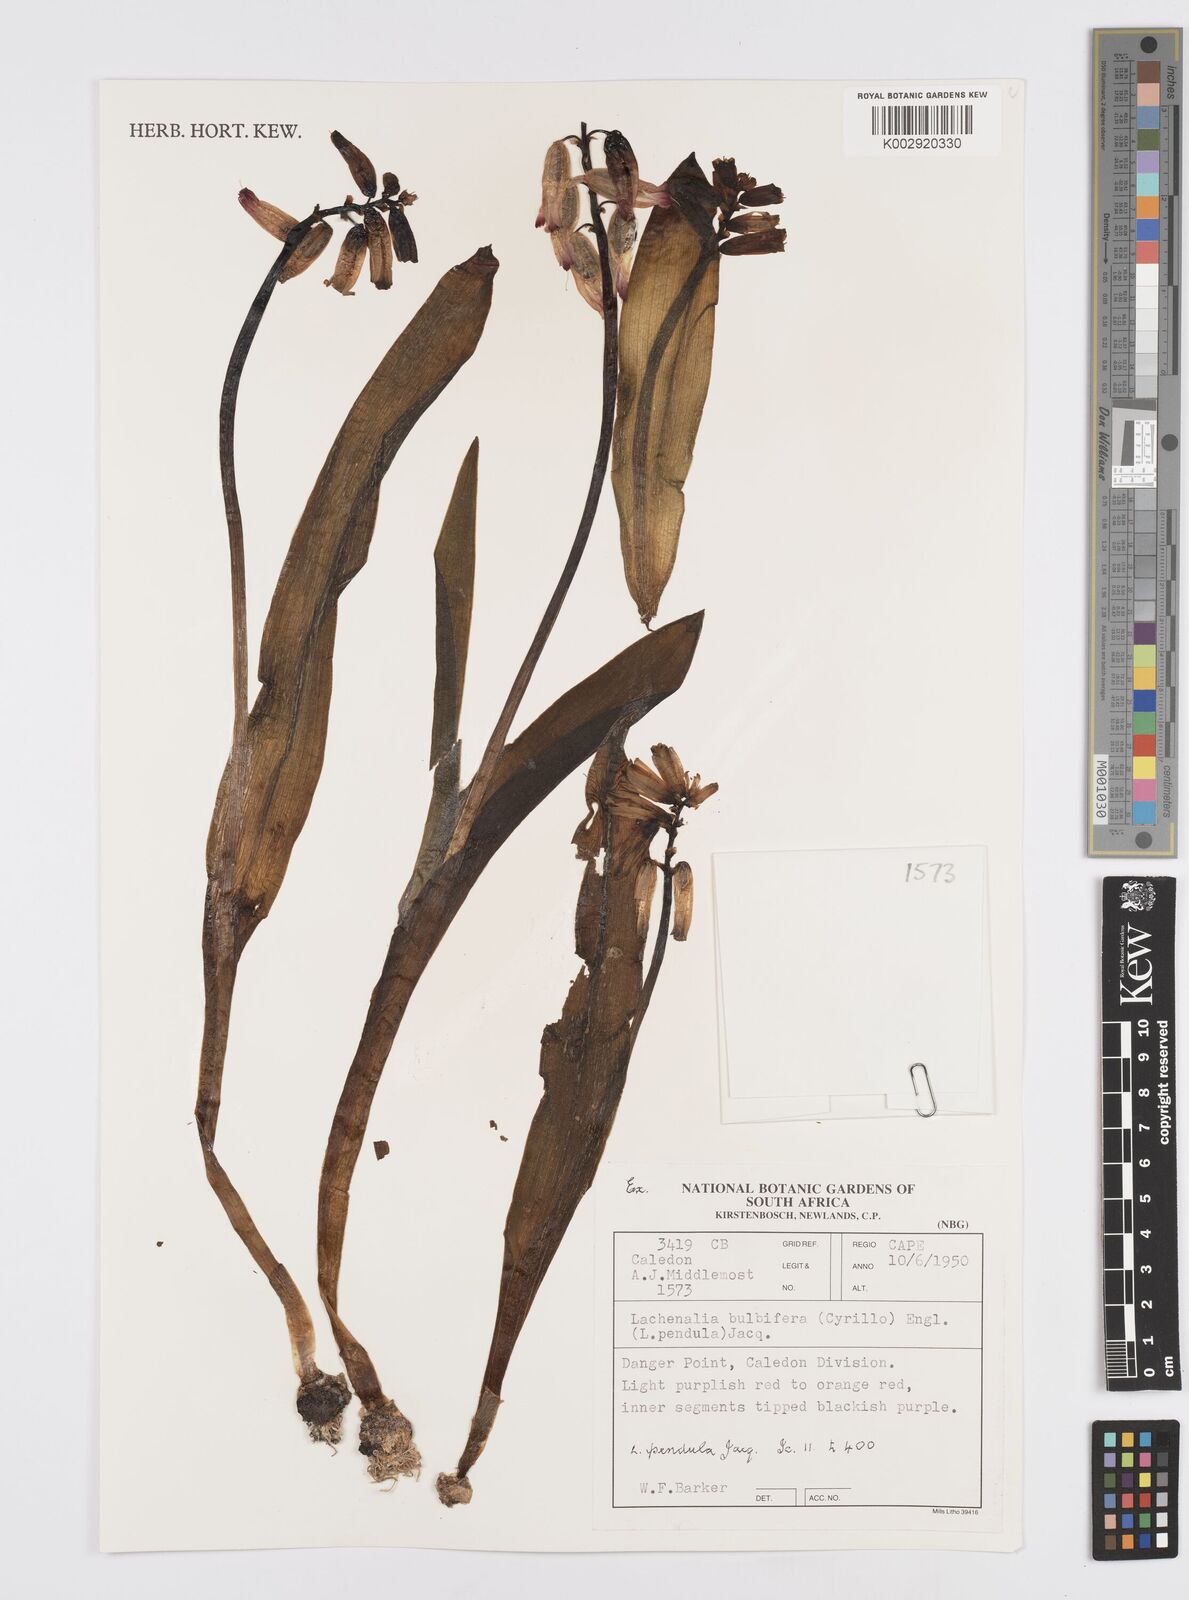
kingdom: Plantae
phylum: Tracheophyta
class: Liliopsida
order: Asparagales
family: Asparagaceae
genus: Lachenalia
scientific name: Lachenalia bulbifera
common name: Red lachenalia
